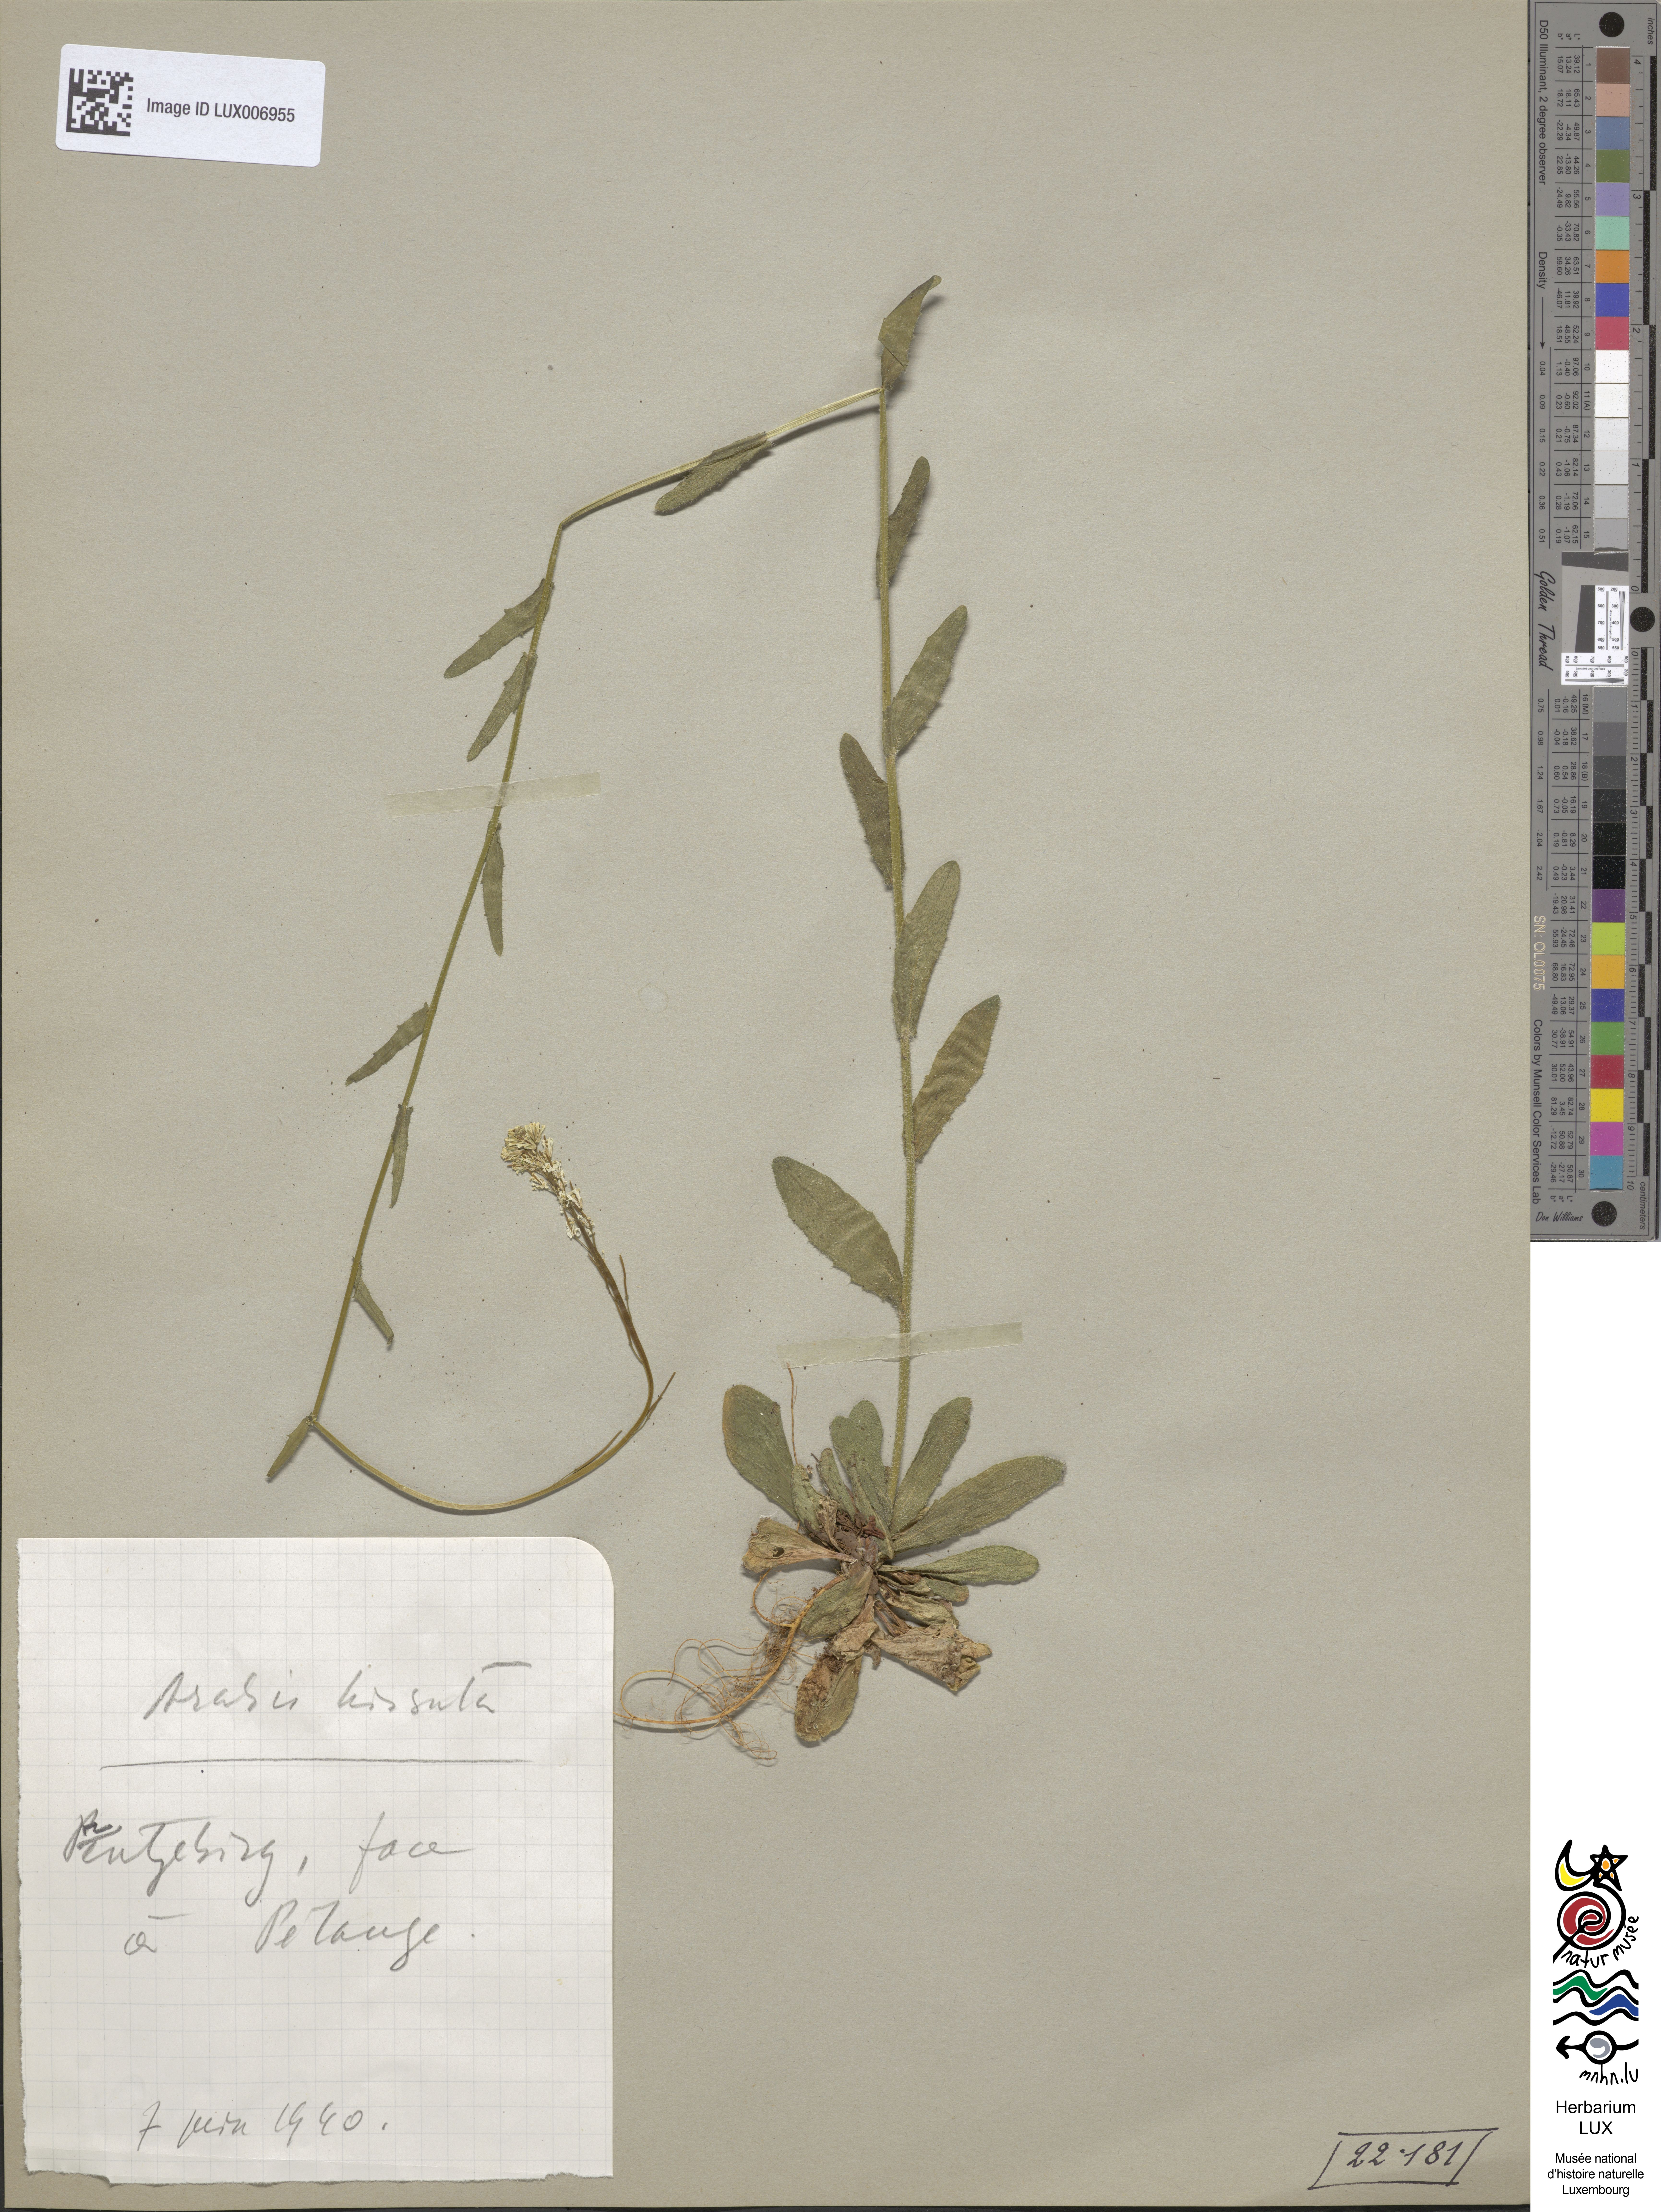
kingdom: Plantae
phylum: Tracheophyta
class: Magnoliopsida
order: Brassicales
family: Brassicaceae
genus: Arabis
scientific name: Arabis hirsuta
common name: Hairy rock-cress
